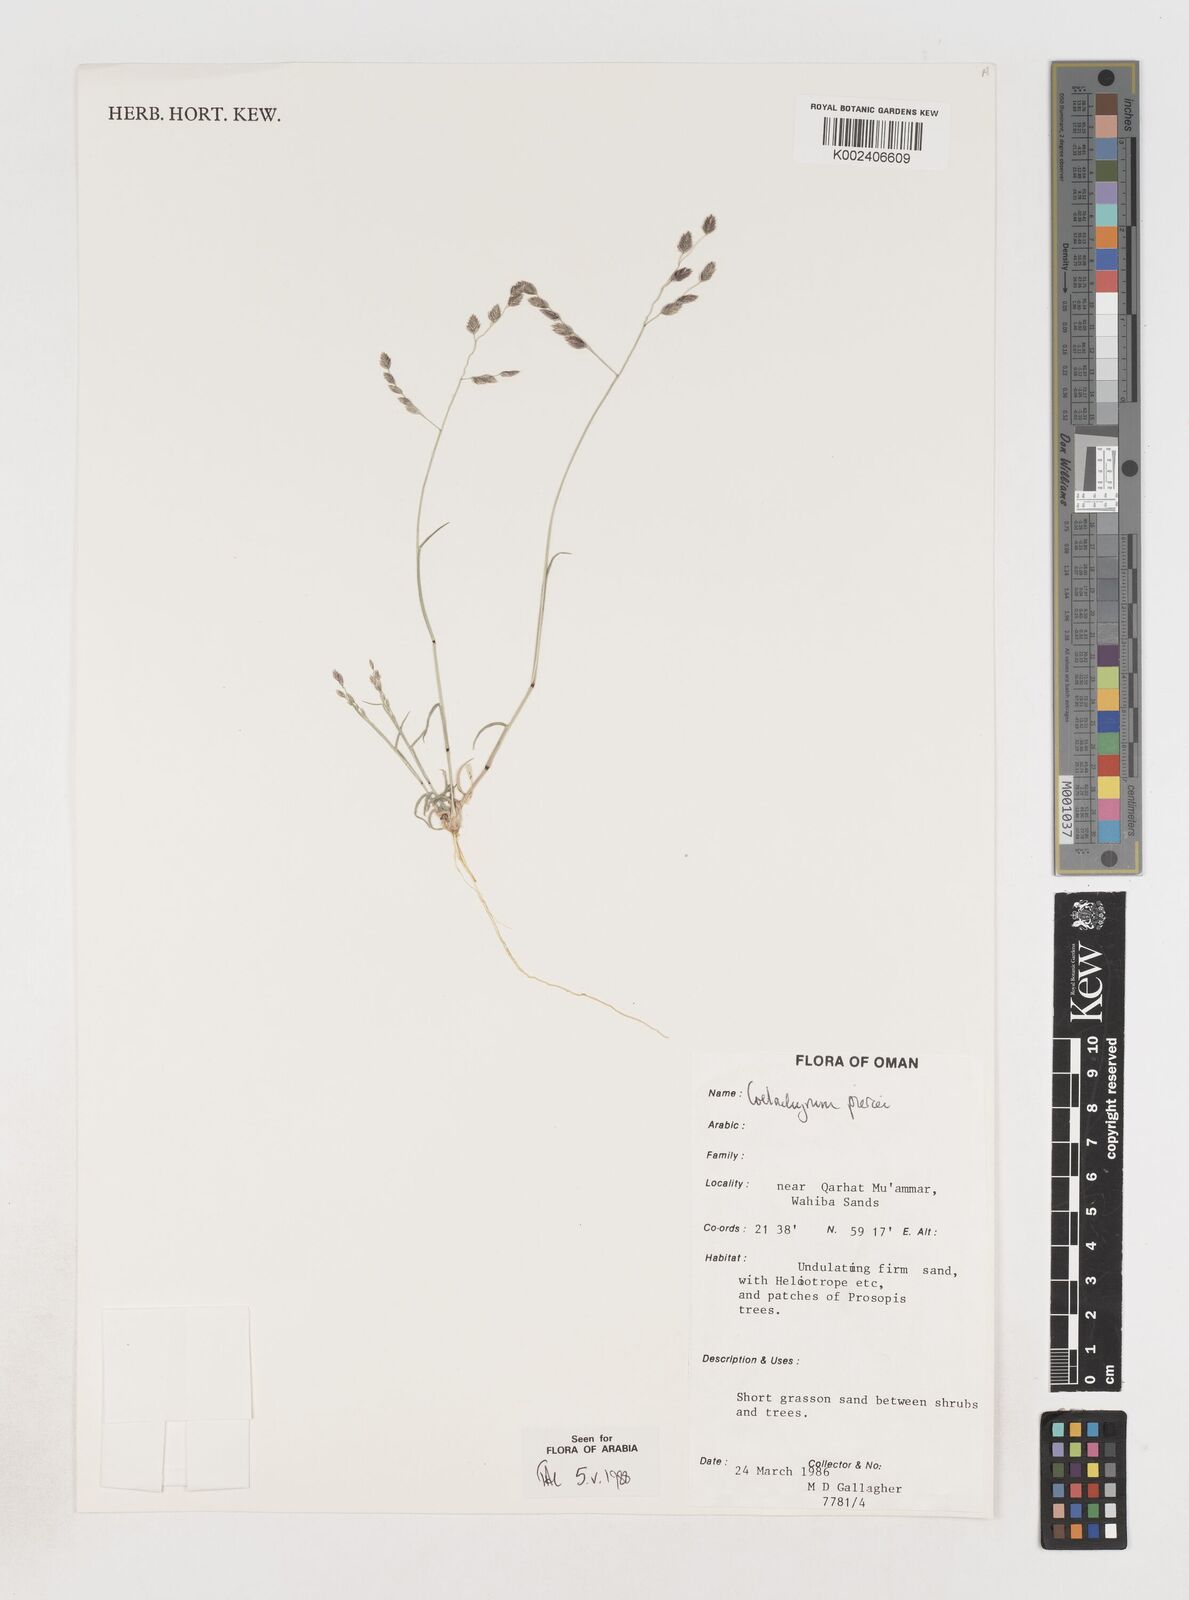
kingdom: Plantae
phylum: Tracheophyta
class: Liliopsida
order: Poales
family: Poaceae
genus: Coelachyrum
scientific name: Coelachyrum piercei
